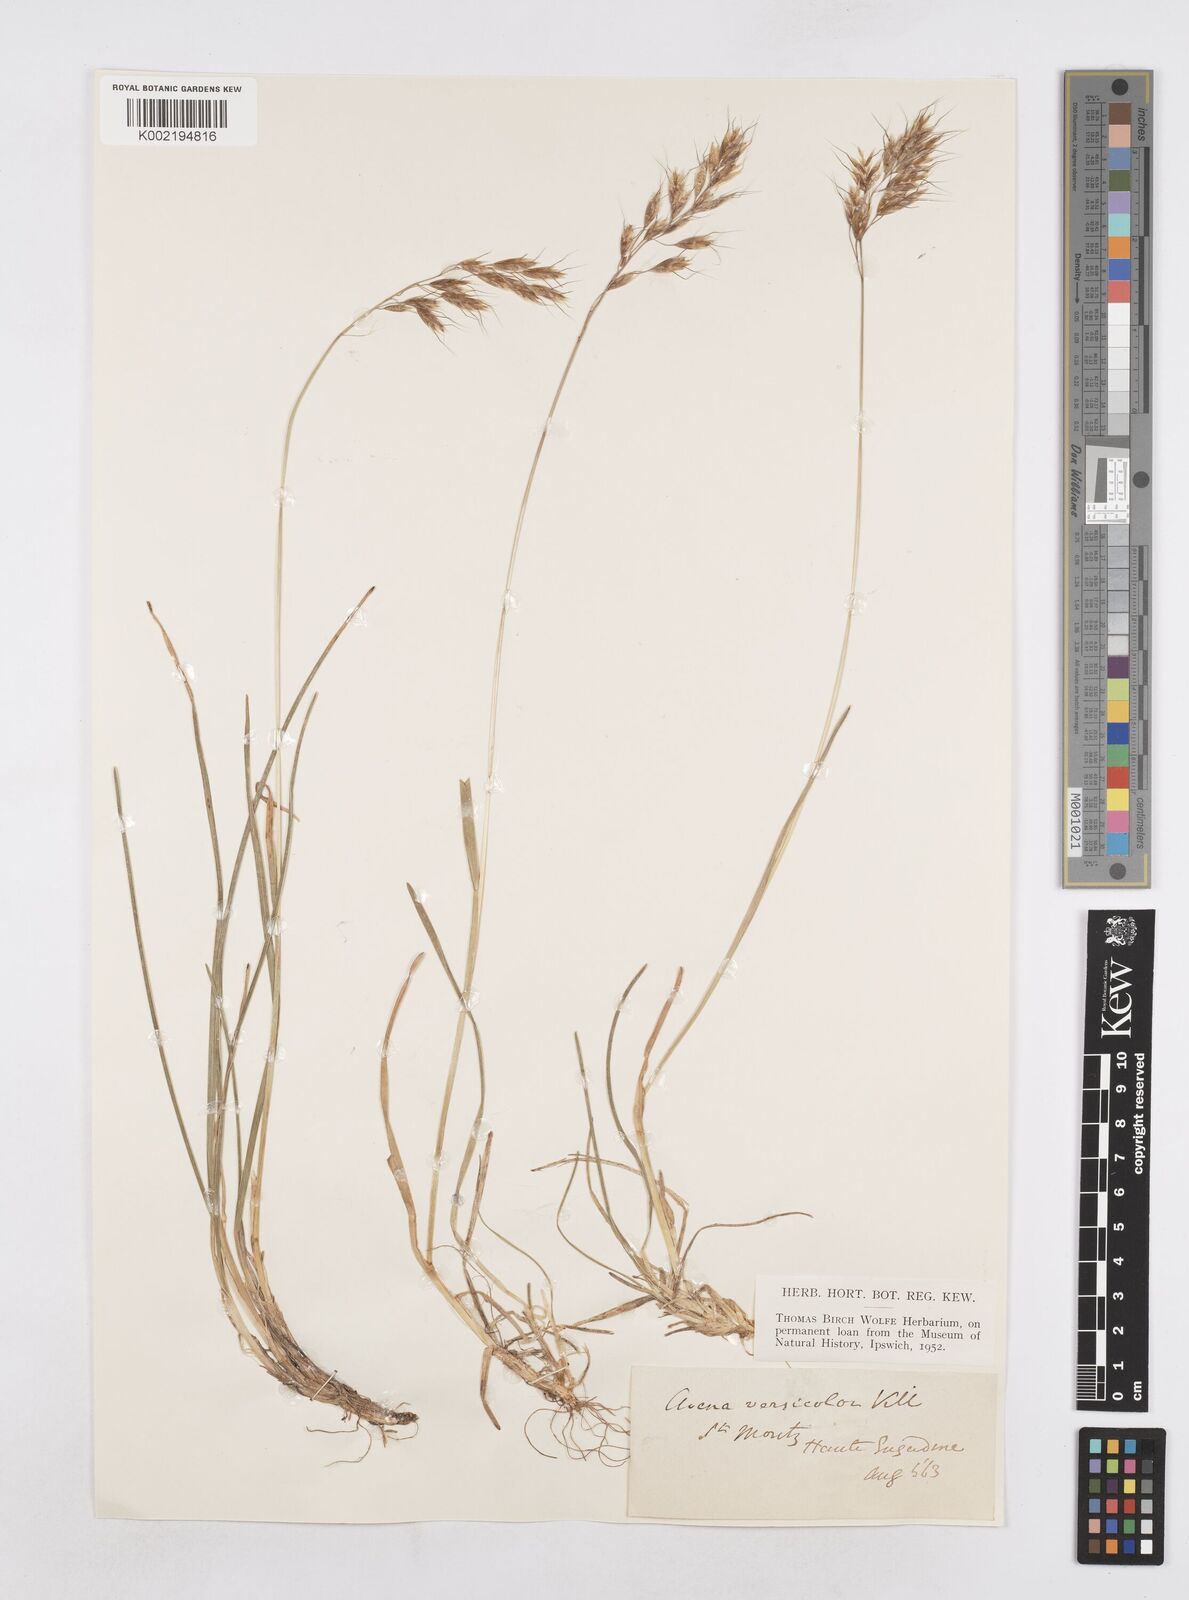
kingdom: Plantae
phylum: Tracheophyta
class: Liliopsida
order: Poales
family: Poaceae
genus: Helictochloa
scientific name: Helictochloa versicolor
